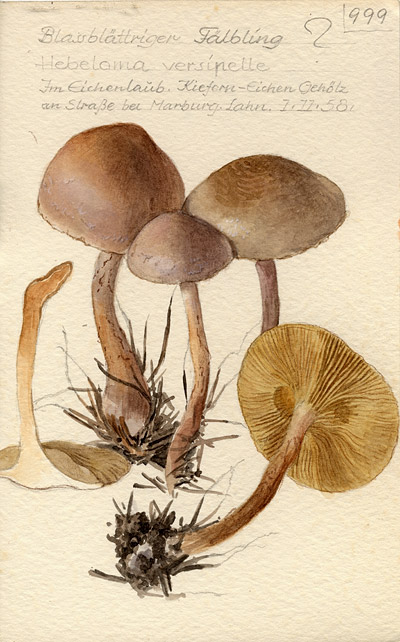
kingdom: Fungi
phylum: Basidiomycota
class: Agaricomycetes
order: Agaricales
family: Hymenogastraceae
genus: Hebeloma
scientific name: Hebeloma versipelle
